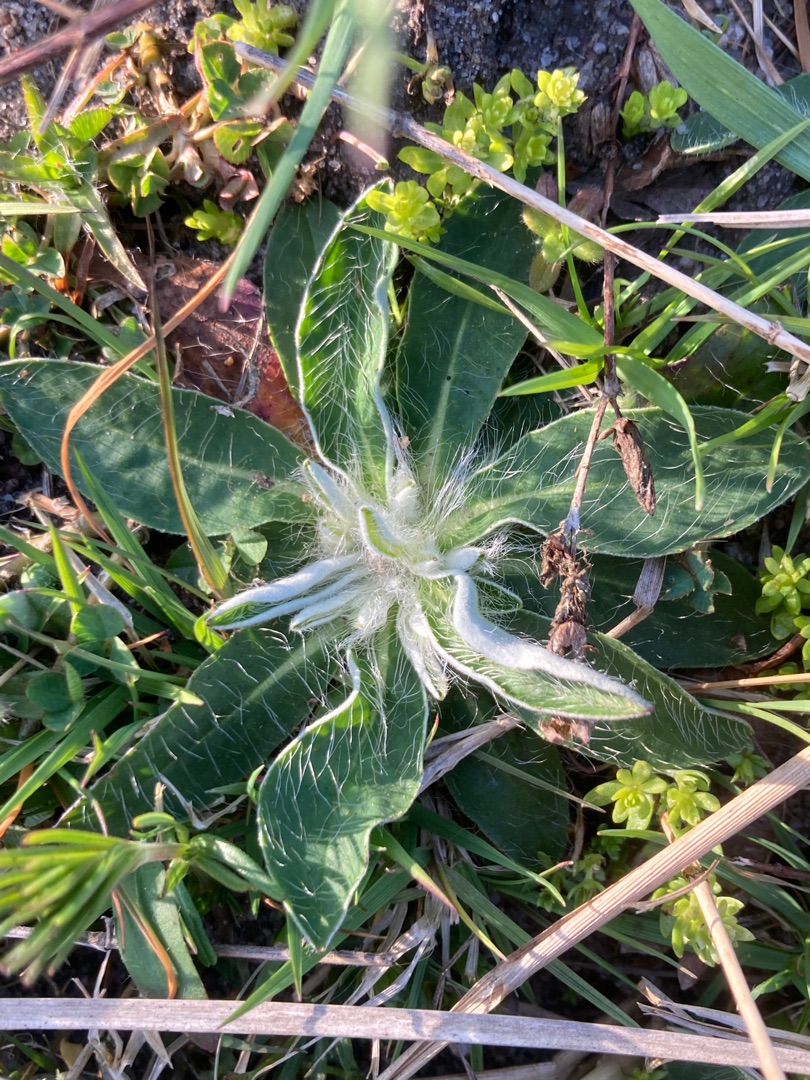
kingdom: Plantae
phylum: Tracheophyta
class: Magnoliopsida
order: Asterales
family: Asteraceae
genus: Pilosella
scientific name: Pilosella officinarum
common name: Håret høgeurt
